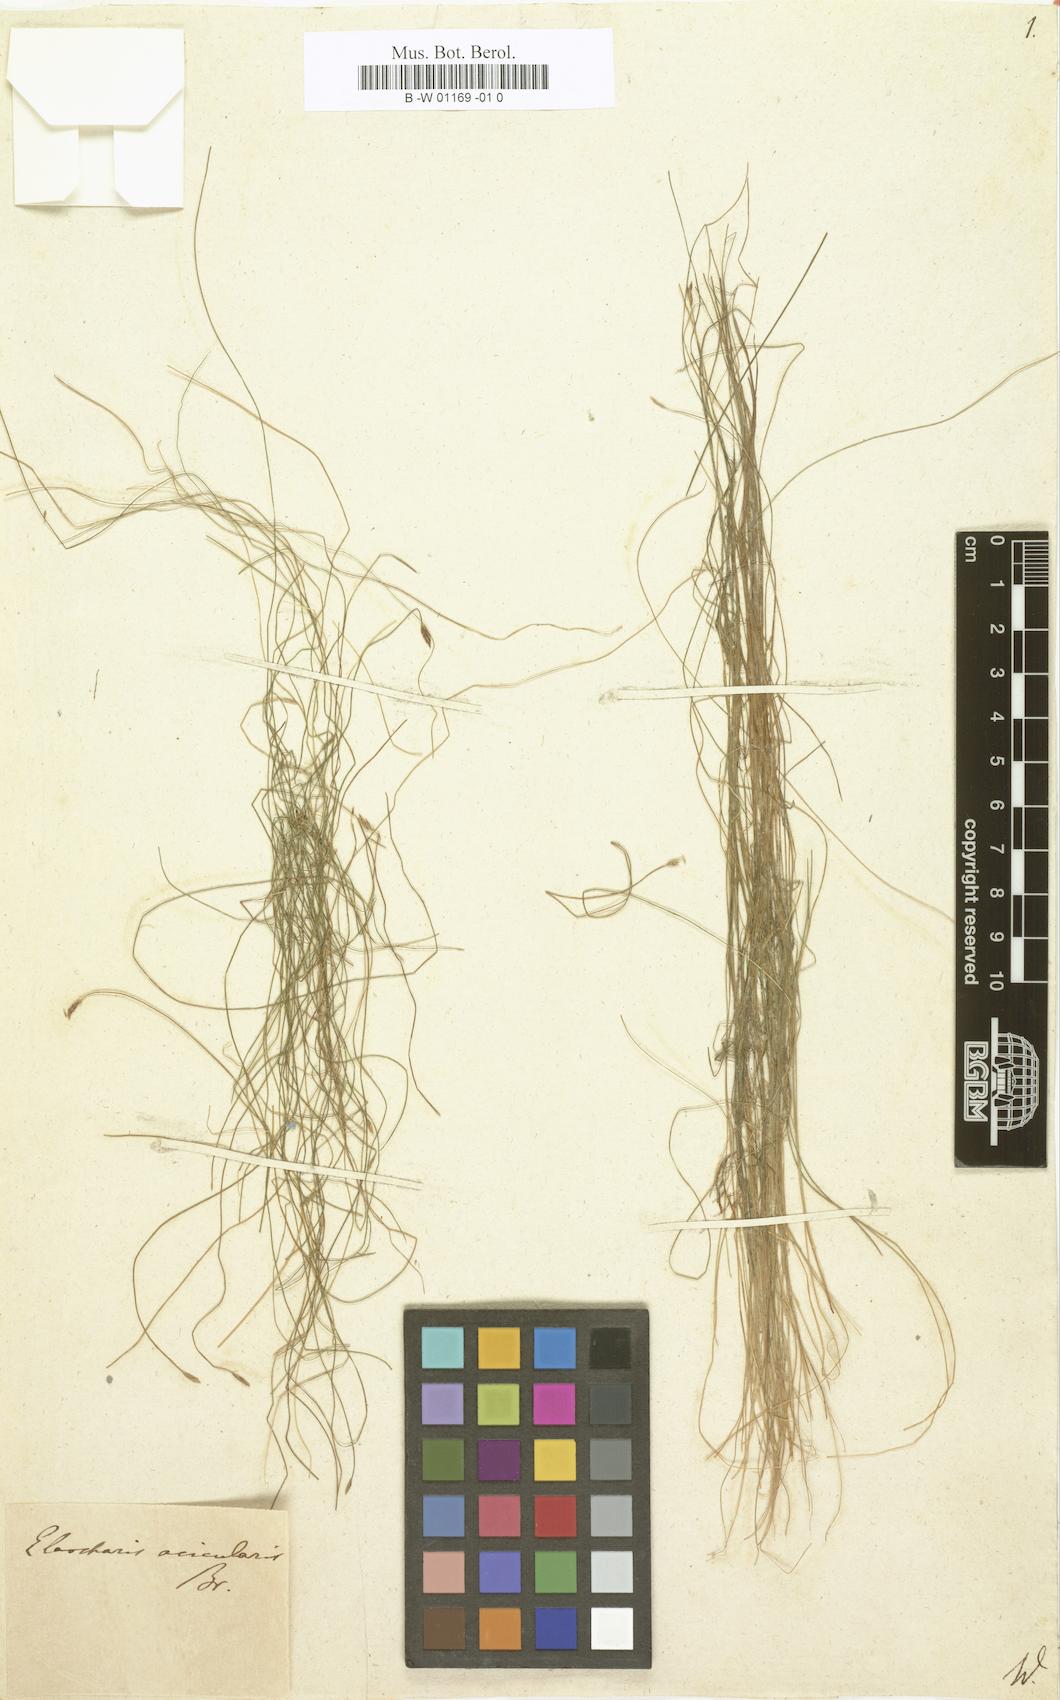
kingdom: Plantae
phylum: Tracheophyta
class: Liliopsida
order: Poales
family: Cyperaceae
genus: Scirpus
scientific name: Scirpus
